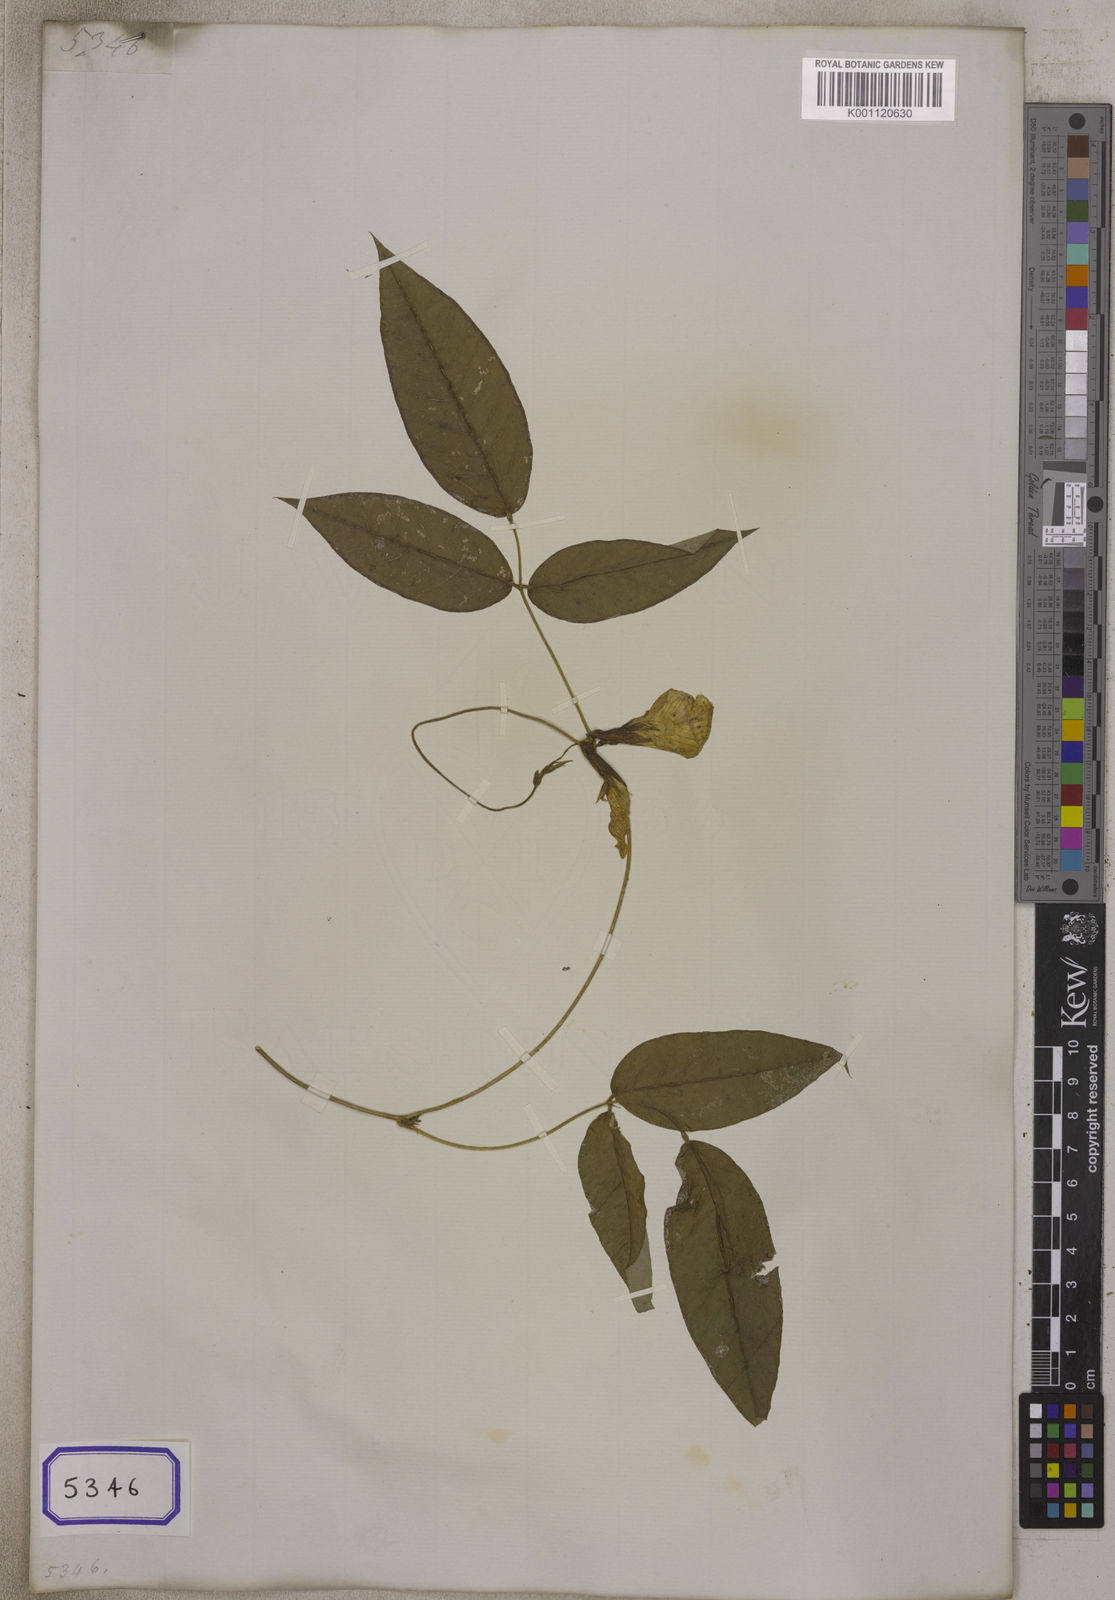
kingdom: Plantae
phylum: Tracheophyta
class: Magnoliopsida
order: Fabales
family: Fabaceae
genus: Clitoria
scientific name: Clitoria
